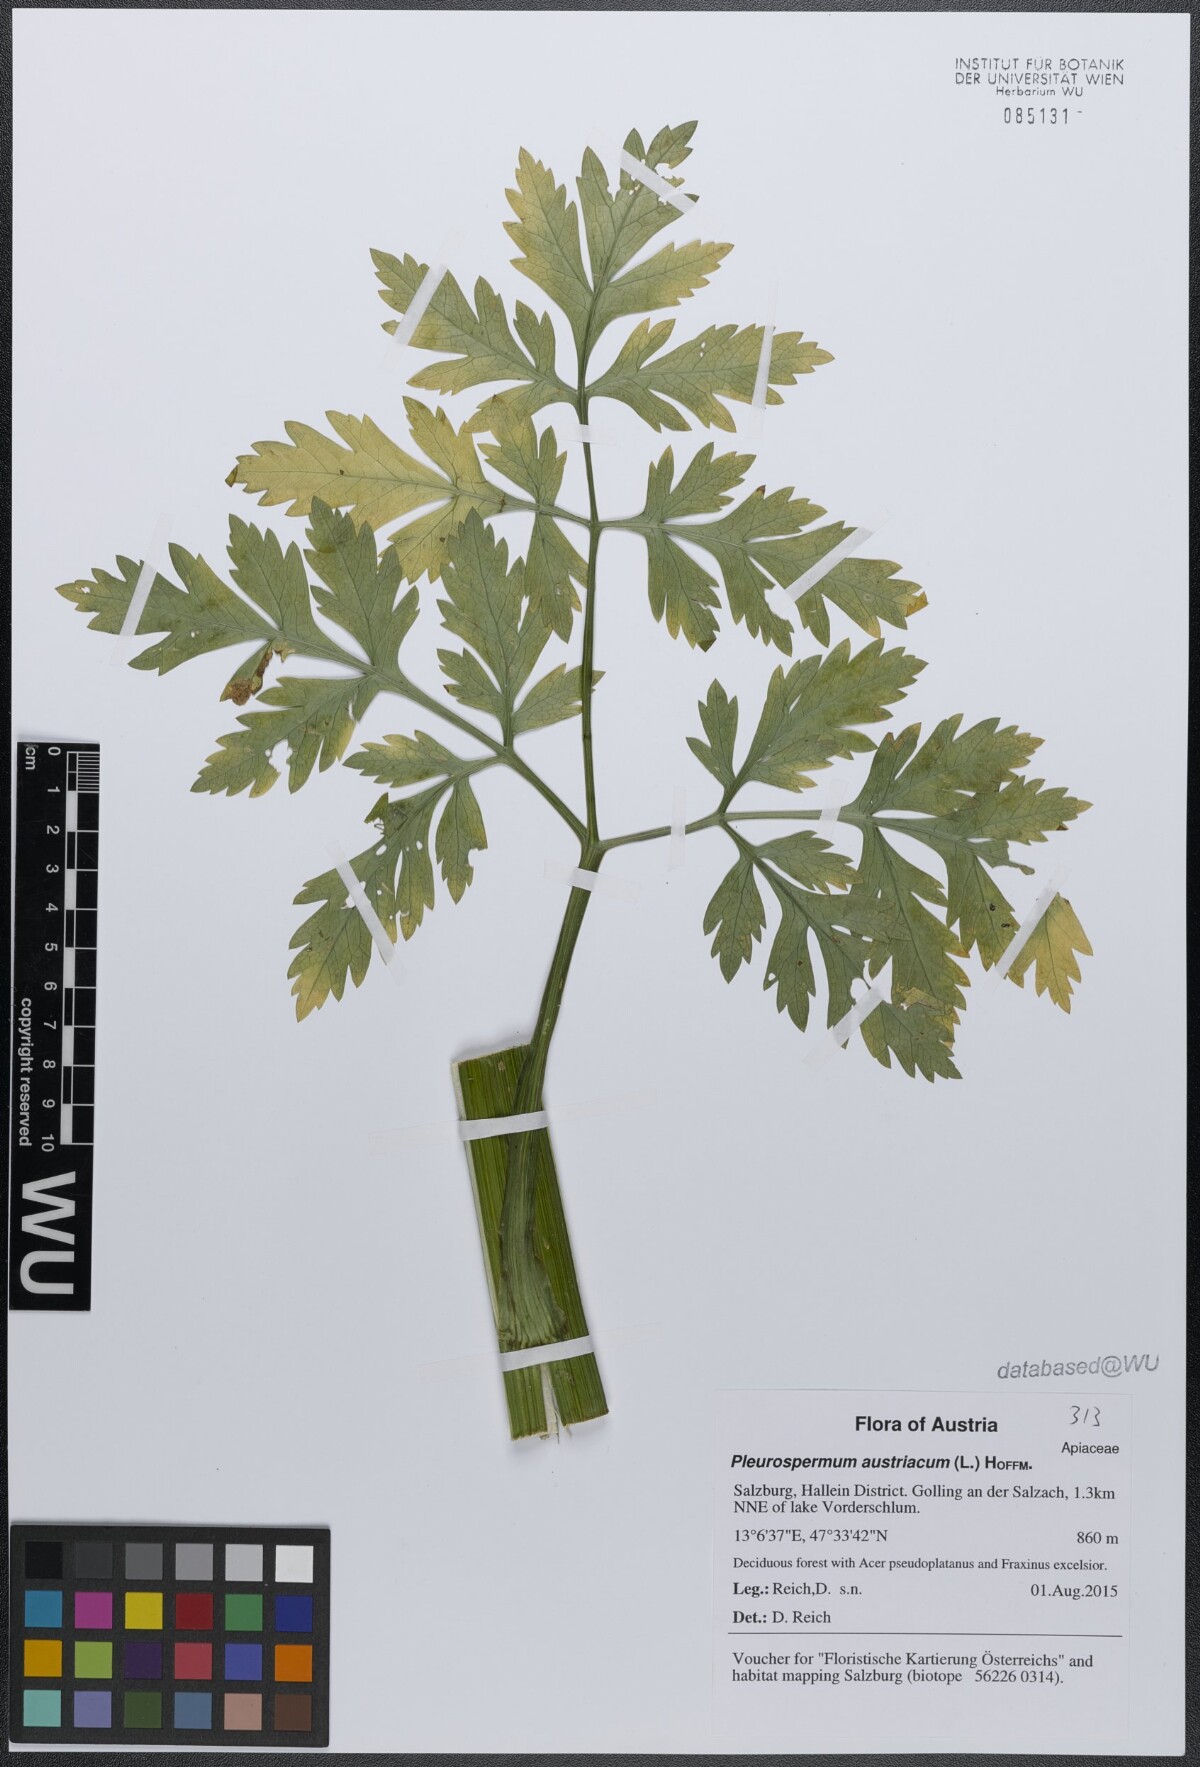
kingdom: Plantae
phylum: Tracheophyta
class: Magnoliopsida
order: Apiales
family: Apiaceae
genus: Pleurospermum
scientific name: Pleurospermum austriacum
